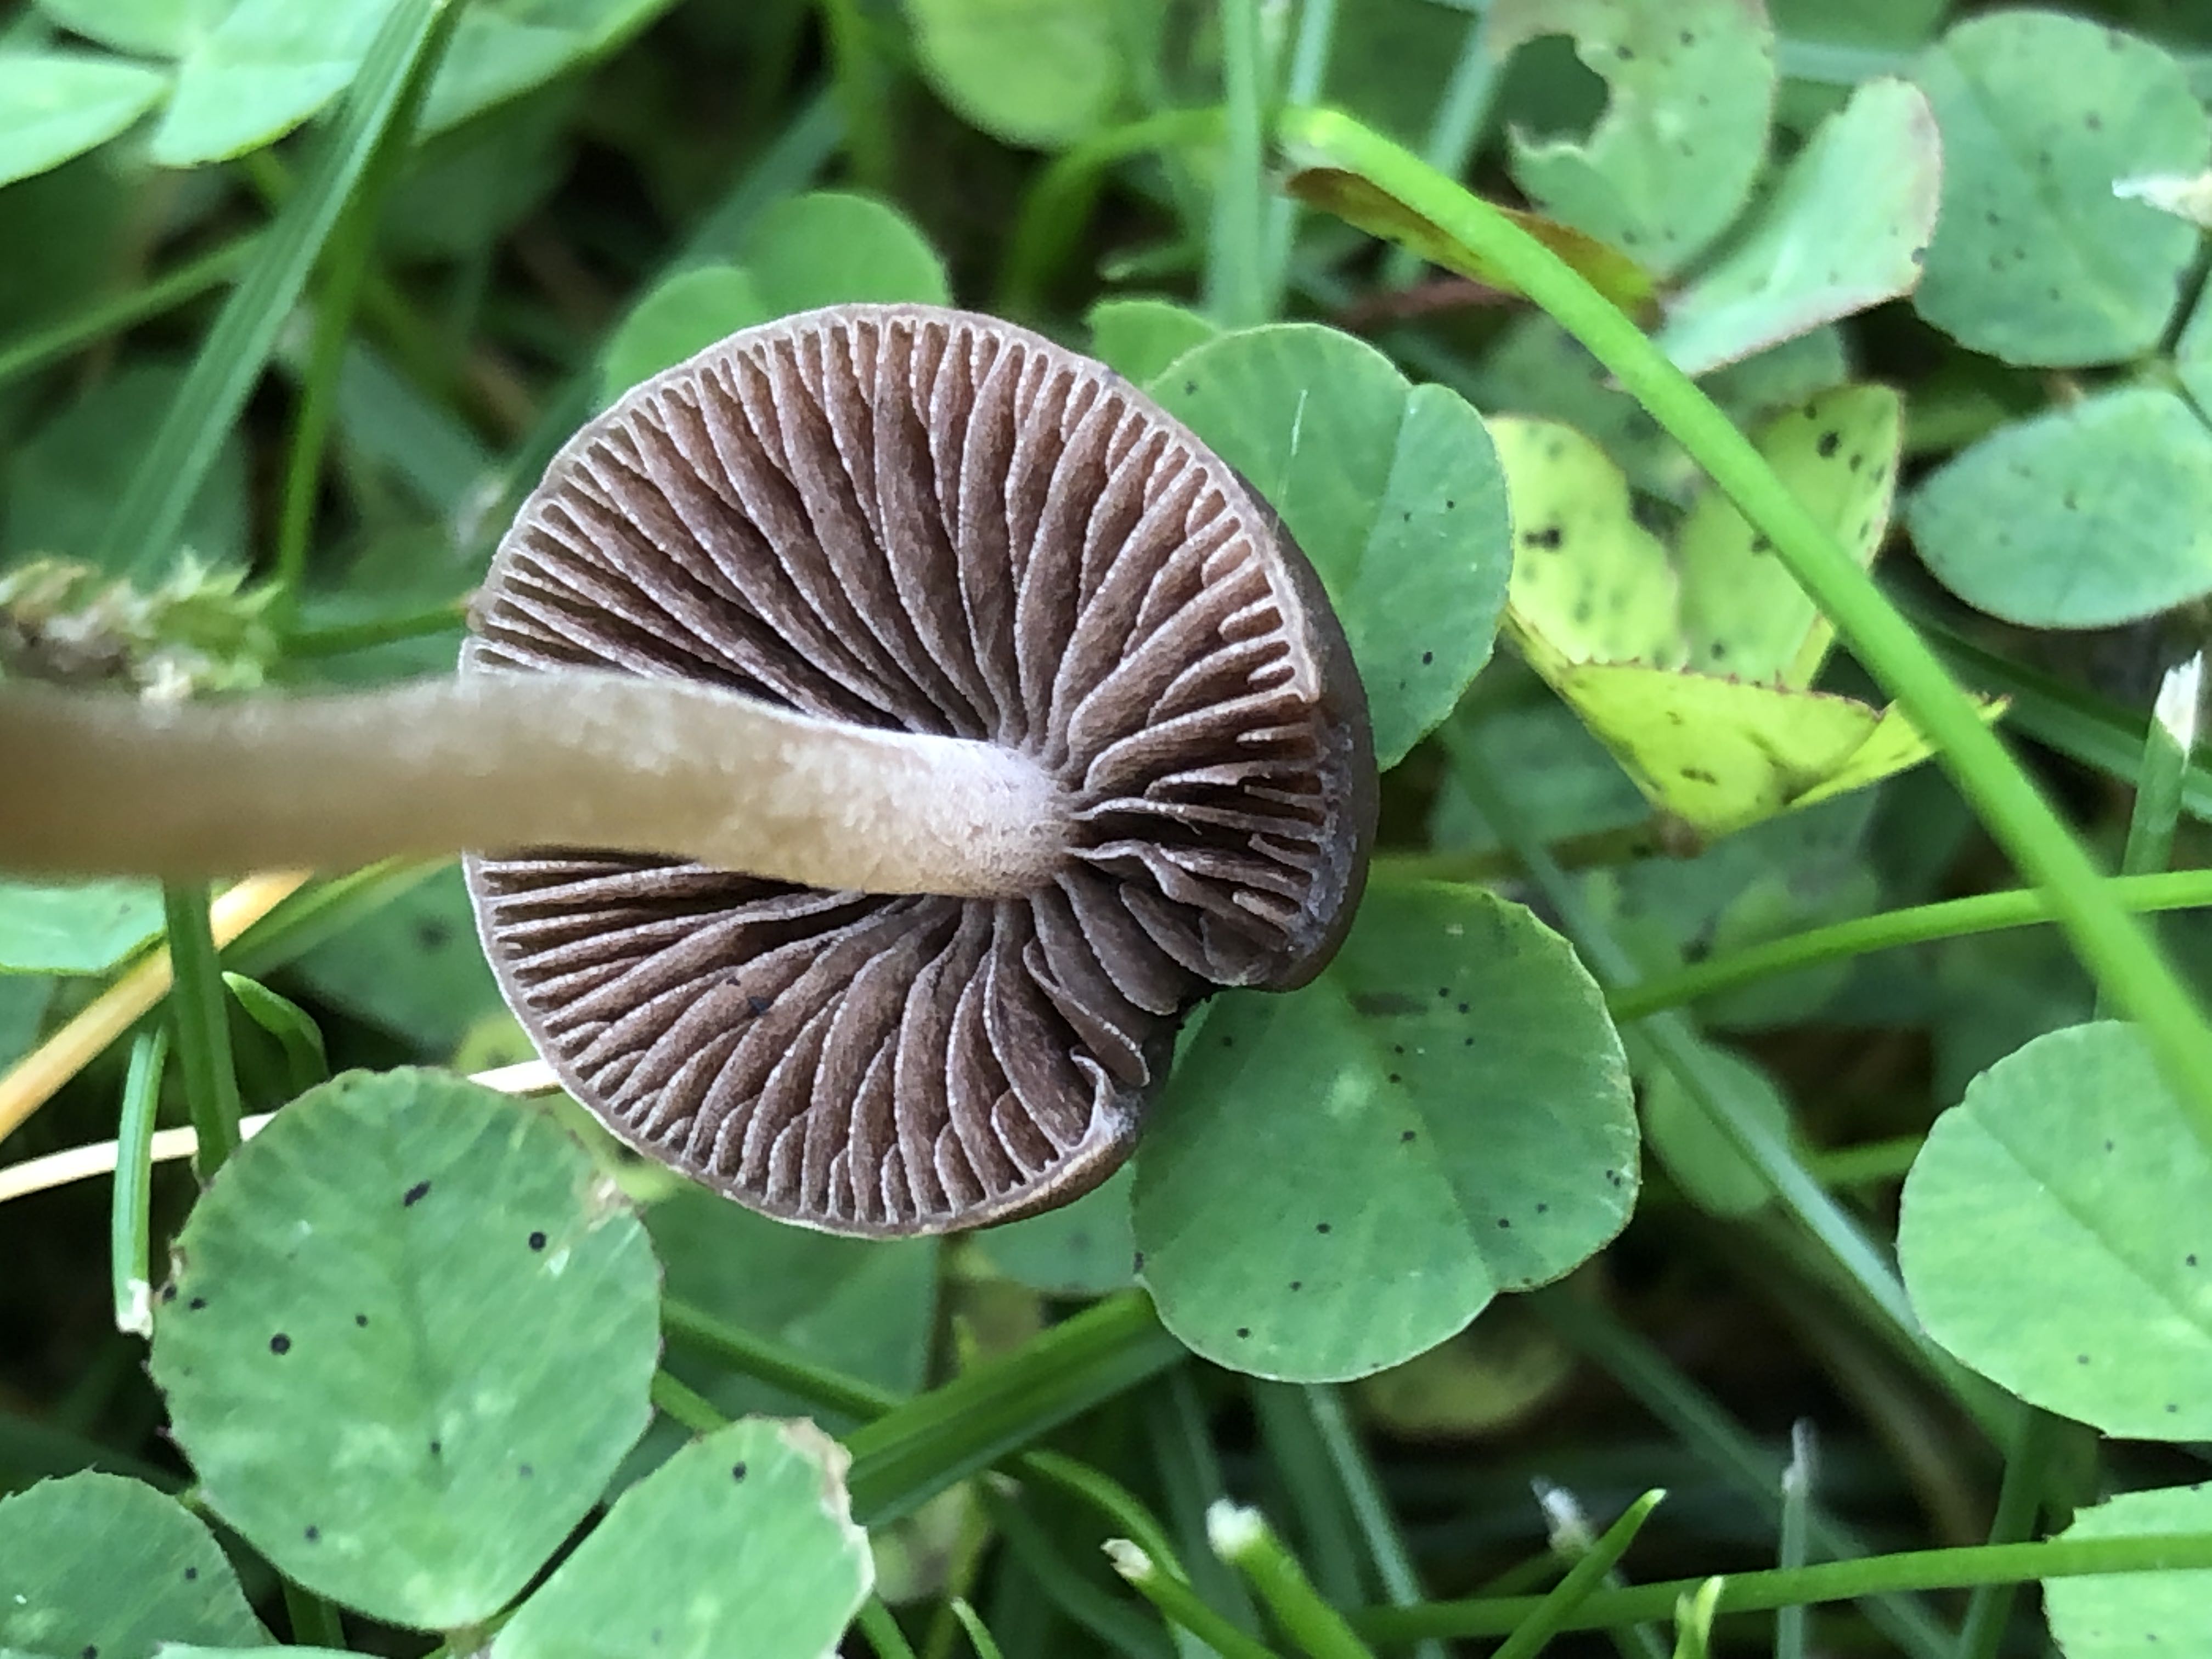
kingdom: Fungi
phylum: Basidiomycota
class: Agaricomycetes
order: Agaricales
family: Bolbitiaceae
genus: Panaeolina
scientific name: Panaeolina foenisecii
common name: høslætsvamp
